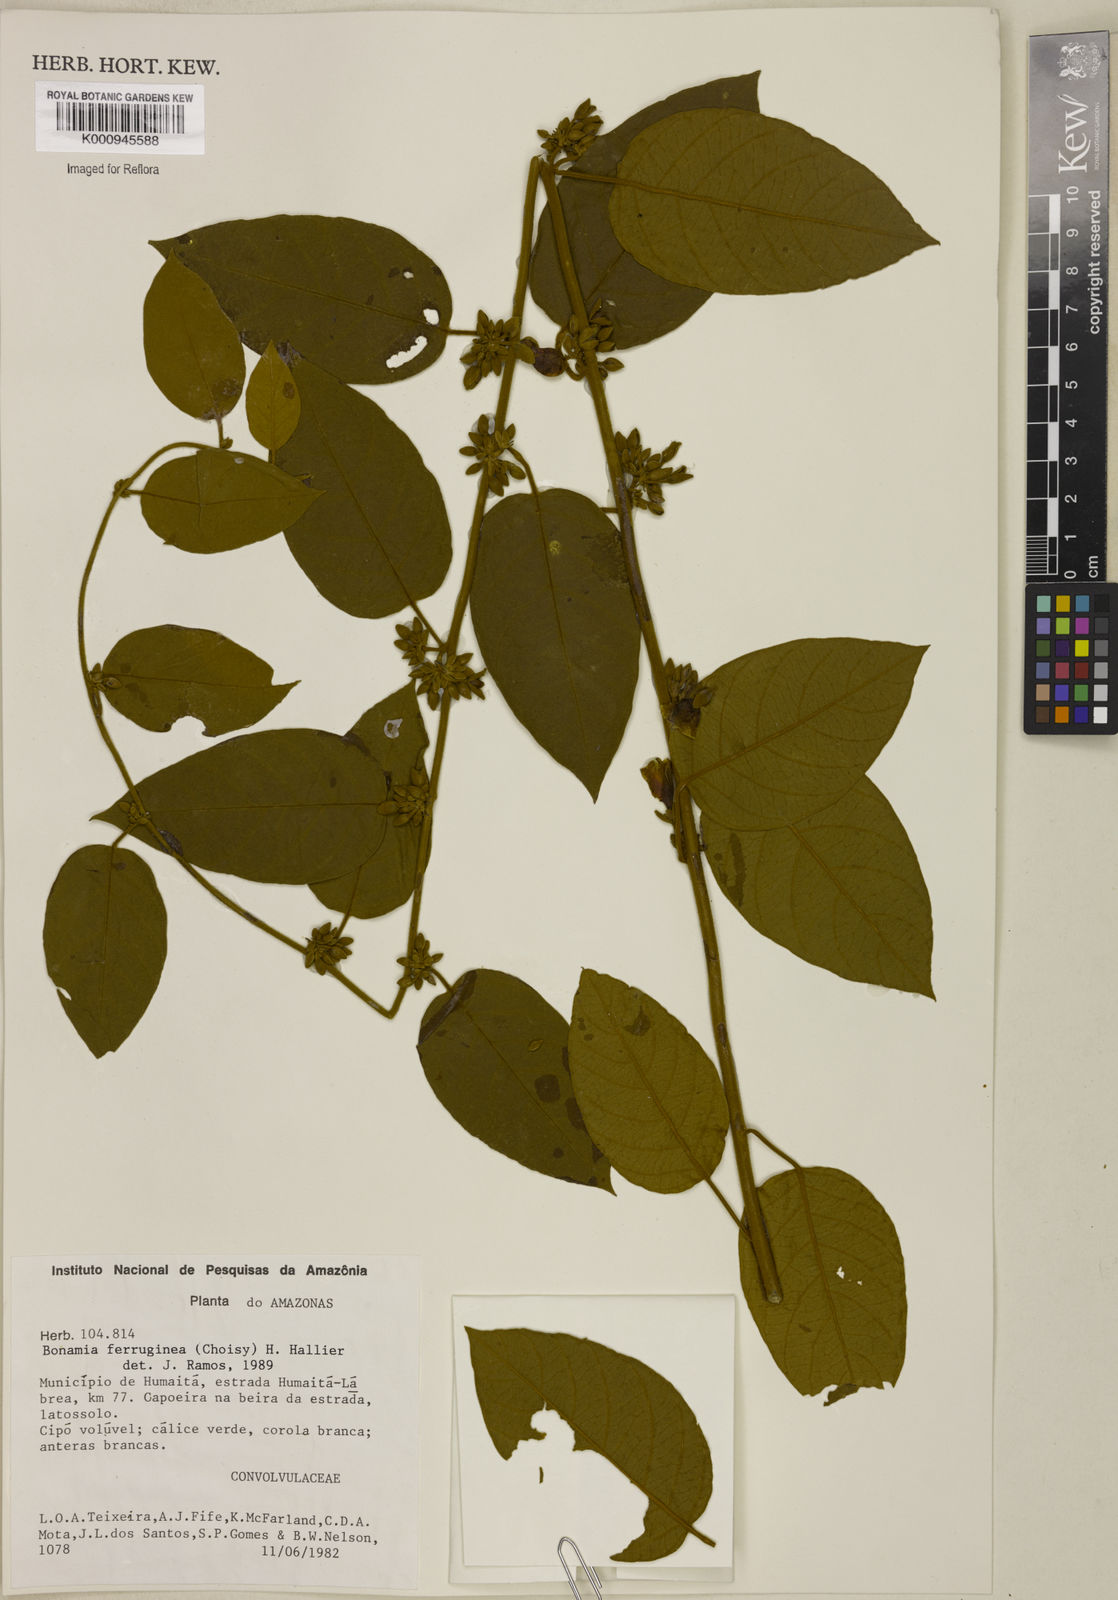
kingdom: Plantae
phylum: Tracheophyta
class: Magnoliopsida
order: Solanales
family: Convolvulaceae
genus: Bonamia
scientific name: Bonamia ferruginea
